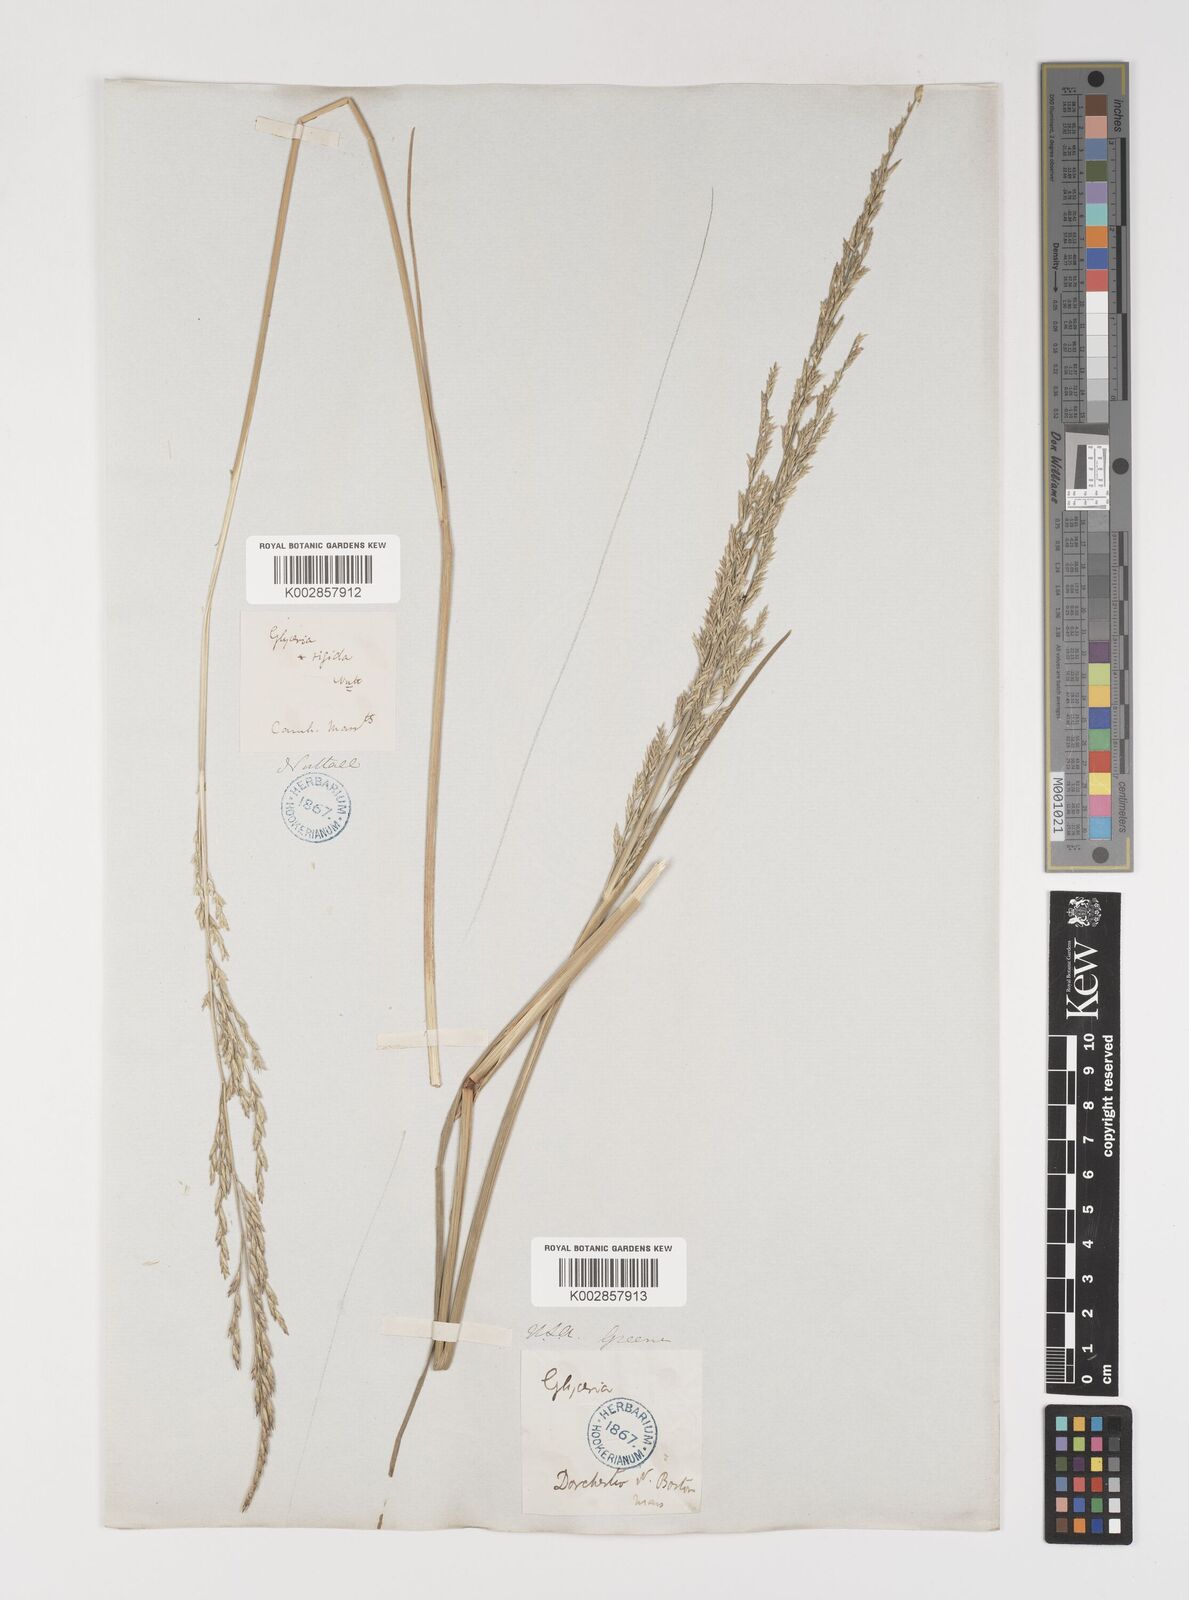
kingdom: Plantae
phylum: Tracheophyta
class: Liliopsida
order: Poales
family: Poaceae
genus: Puccinellia
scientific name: Puccinellia
